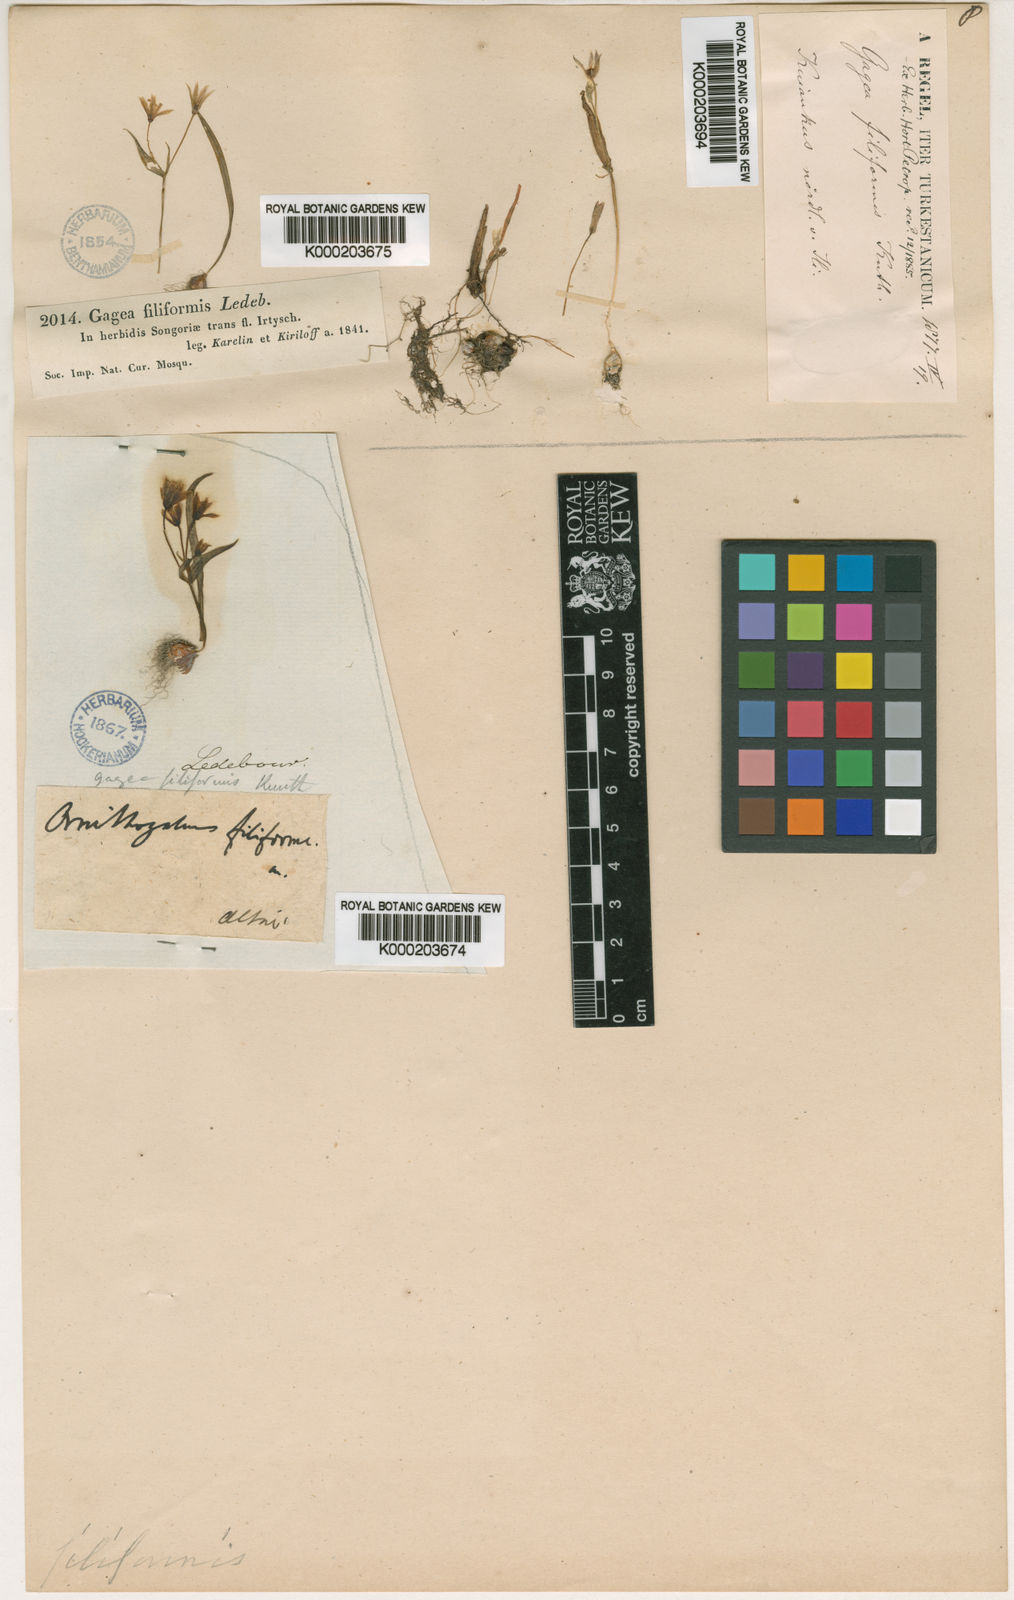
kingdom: Plantae
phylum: Tracheophyta
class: Liliopsida
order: Liliales
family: Liliaceae
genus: Gagea
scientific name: Gagea
